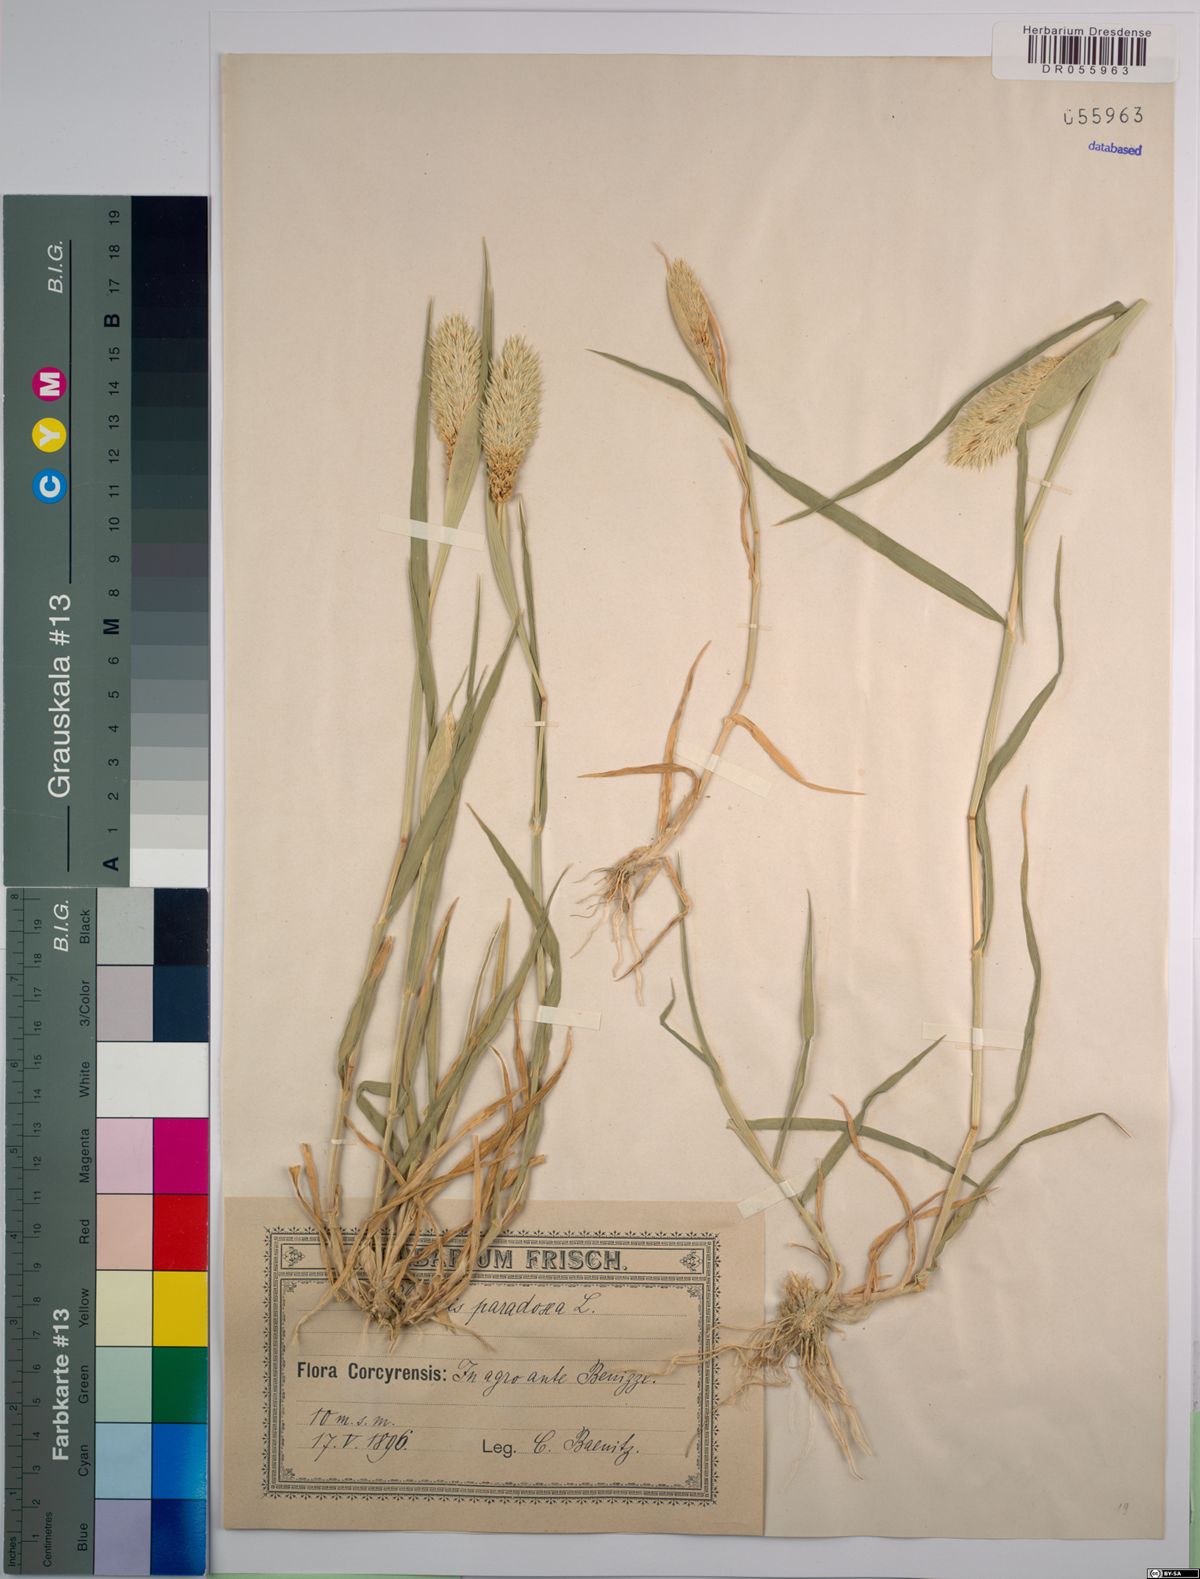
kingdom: Plantae
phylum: Tracheophyta
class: Liliopsida
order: Poales
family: Poaceae
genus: Phalaris
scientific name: Phalaris paradoxa
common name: Awned canary-grass
